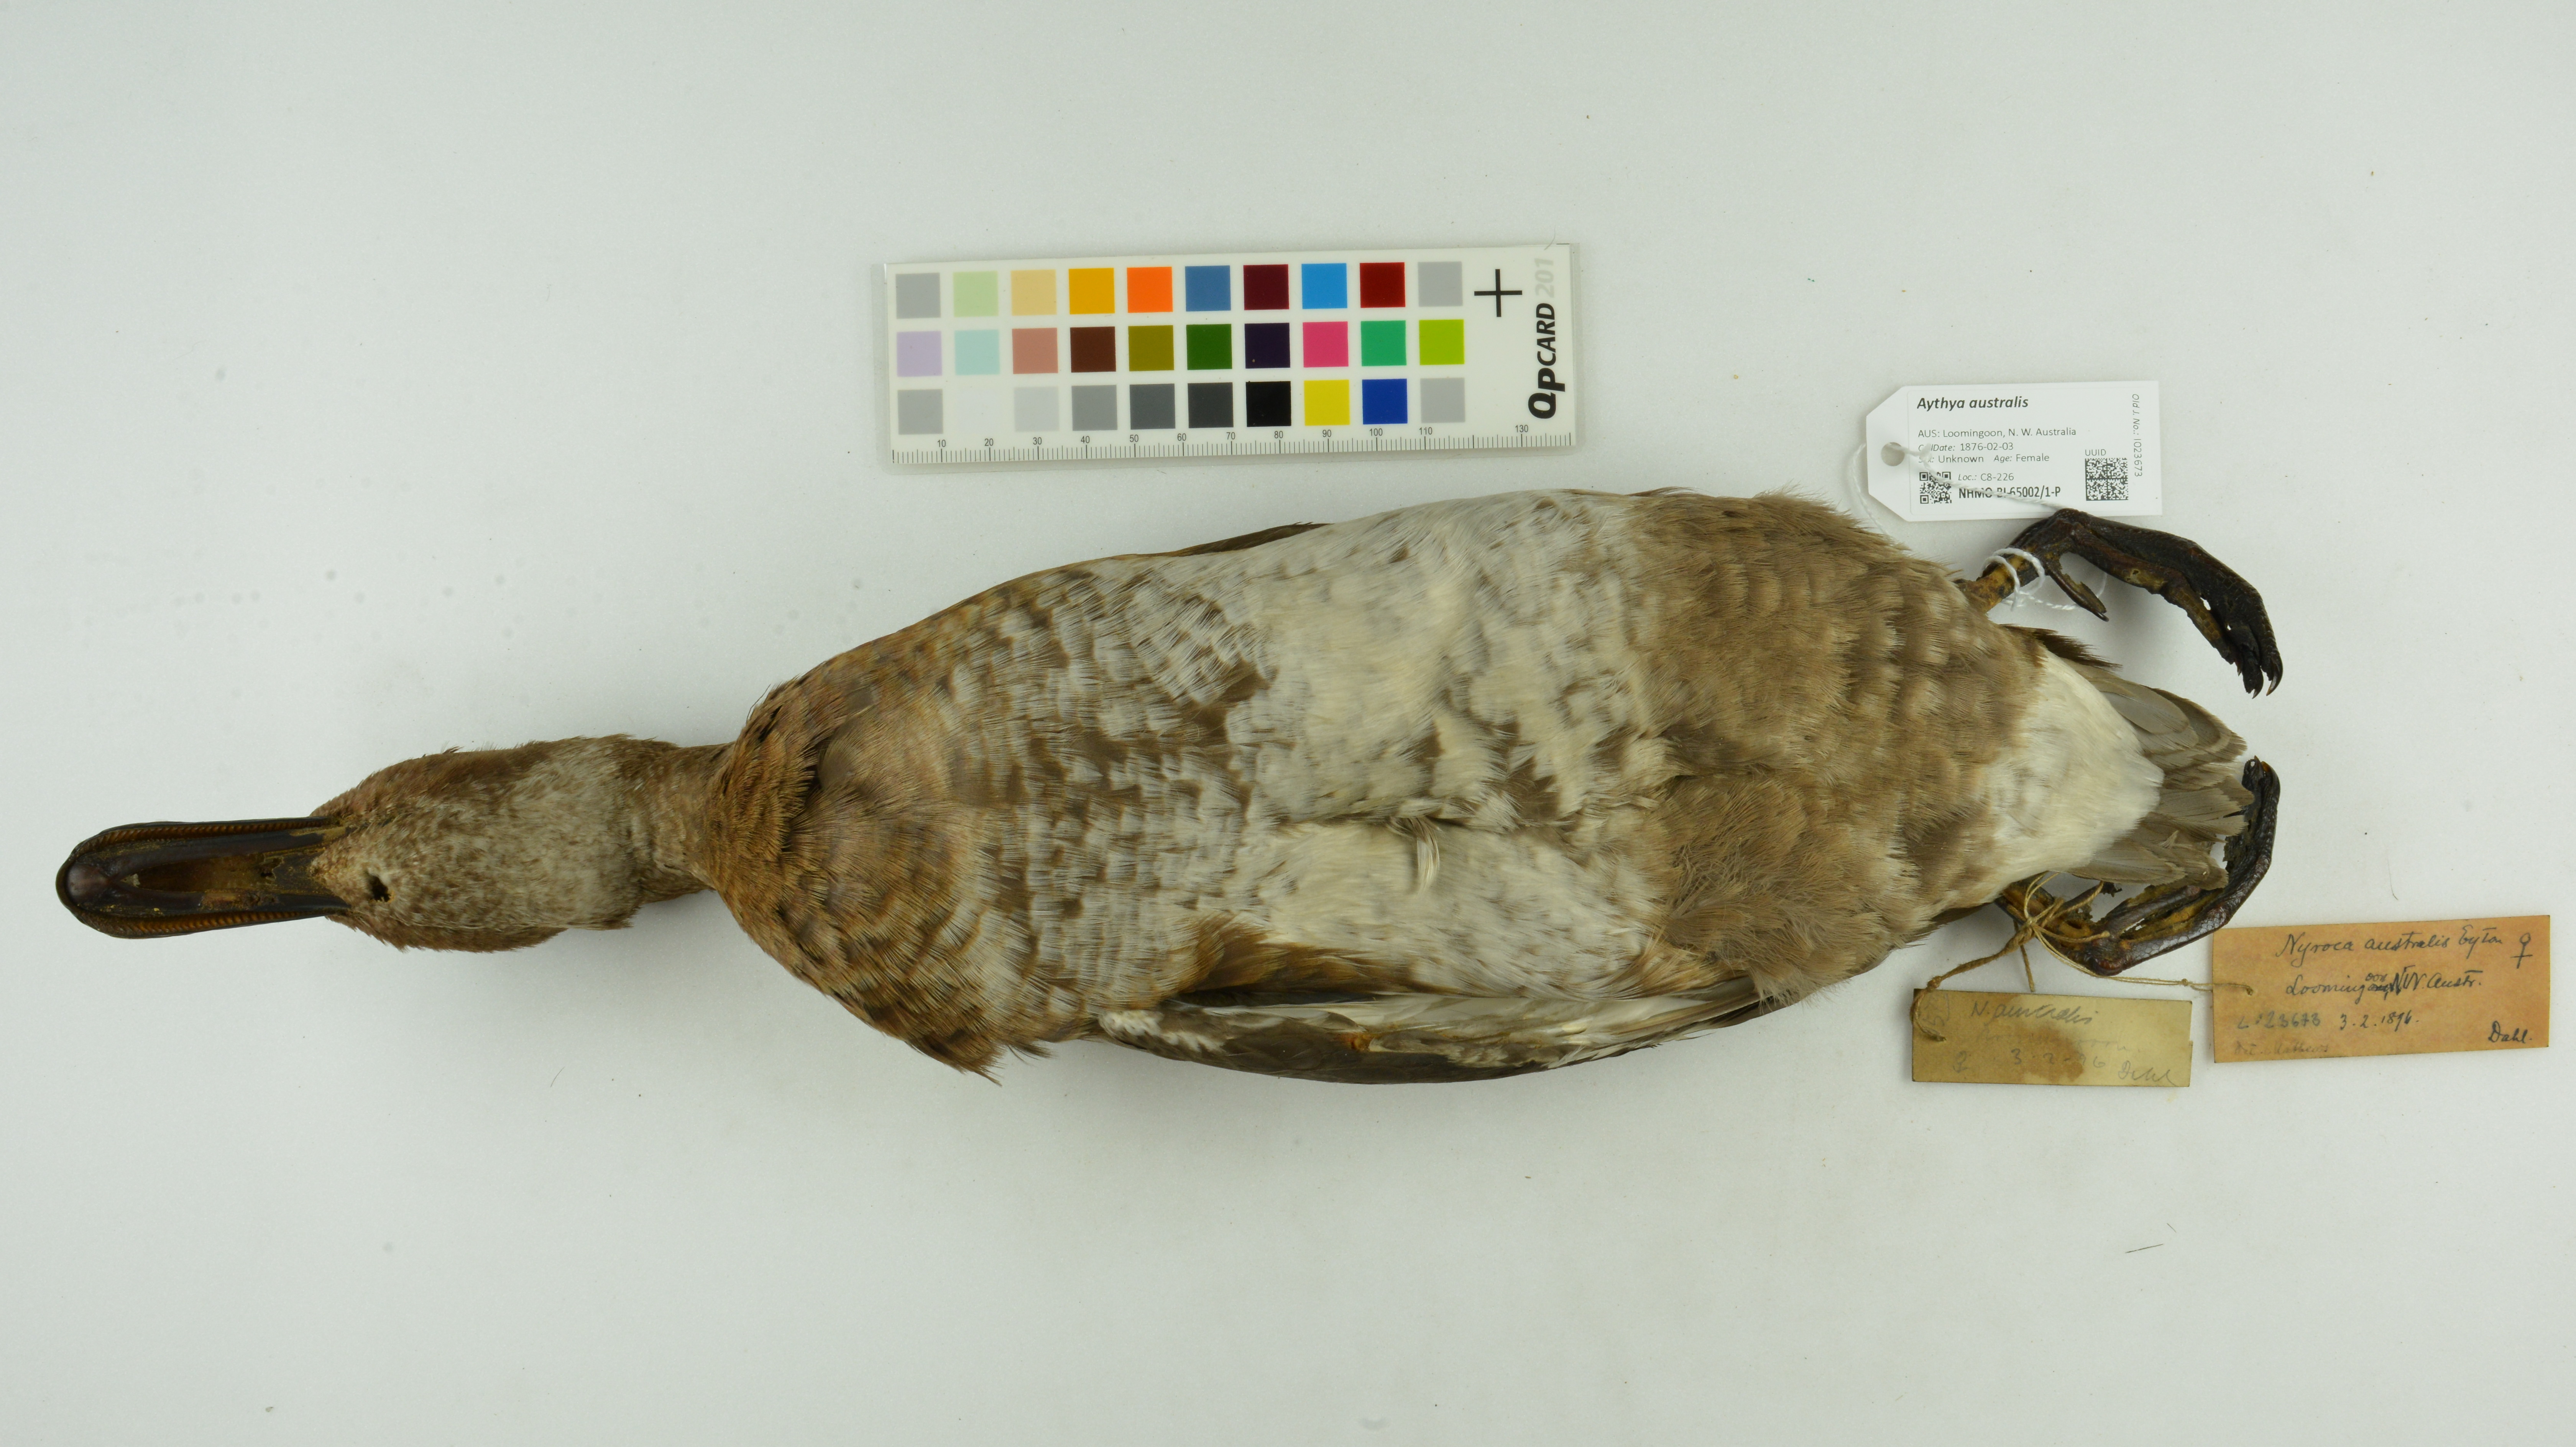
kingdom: Animalia
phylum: Chordata
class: Aves
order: Anseriformes
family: Anatidae
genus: Aythya
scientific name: Aythya australis
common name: Hardhead
